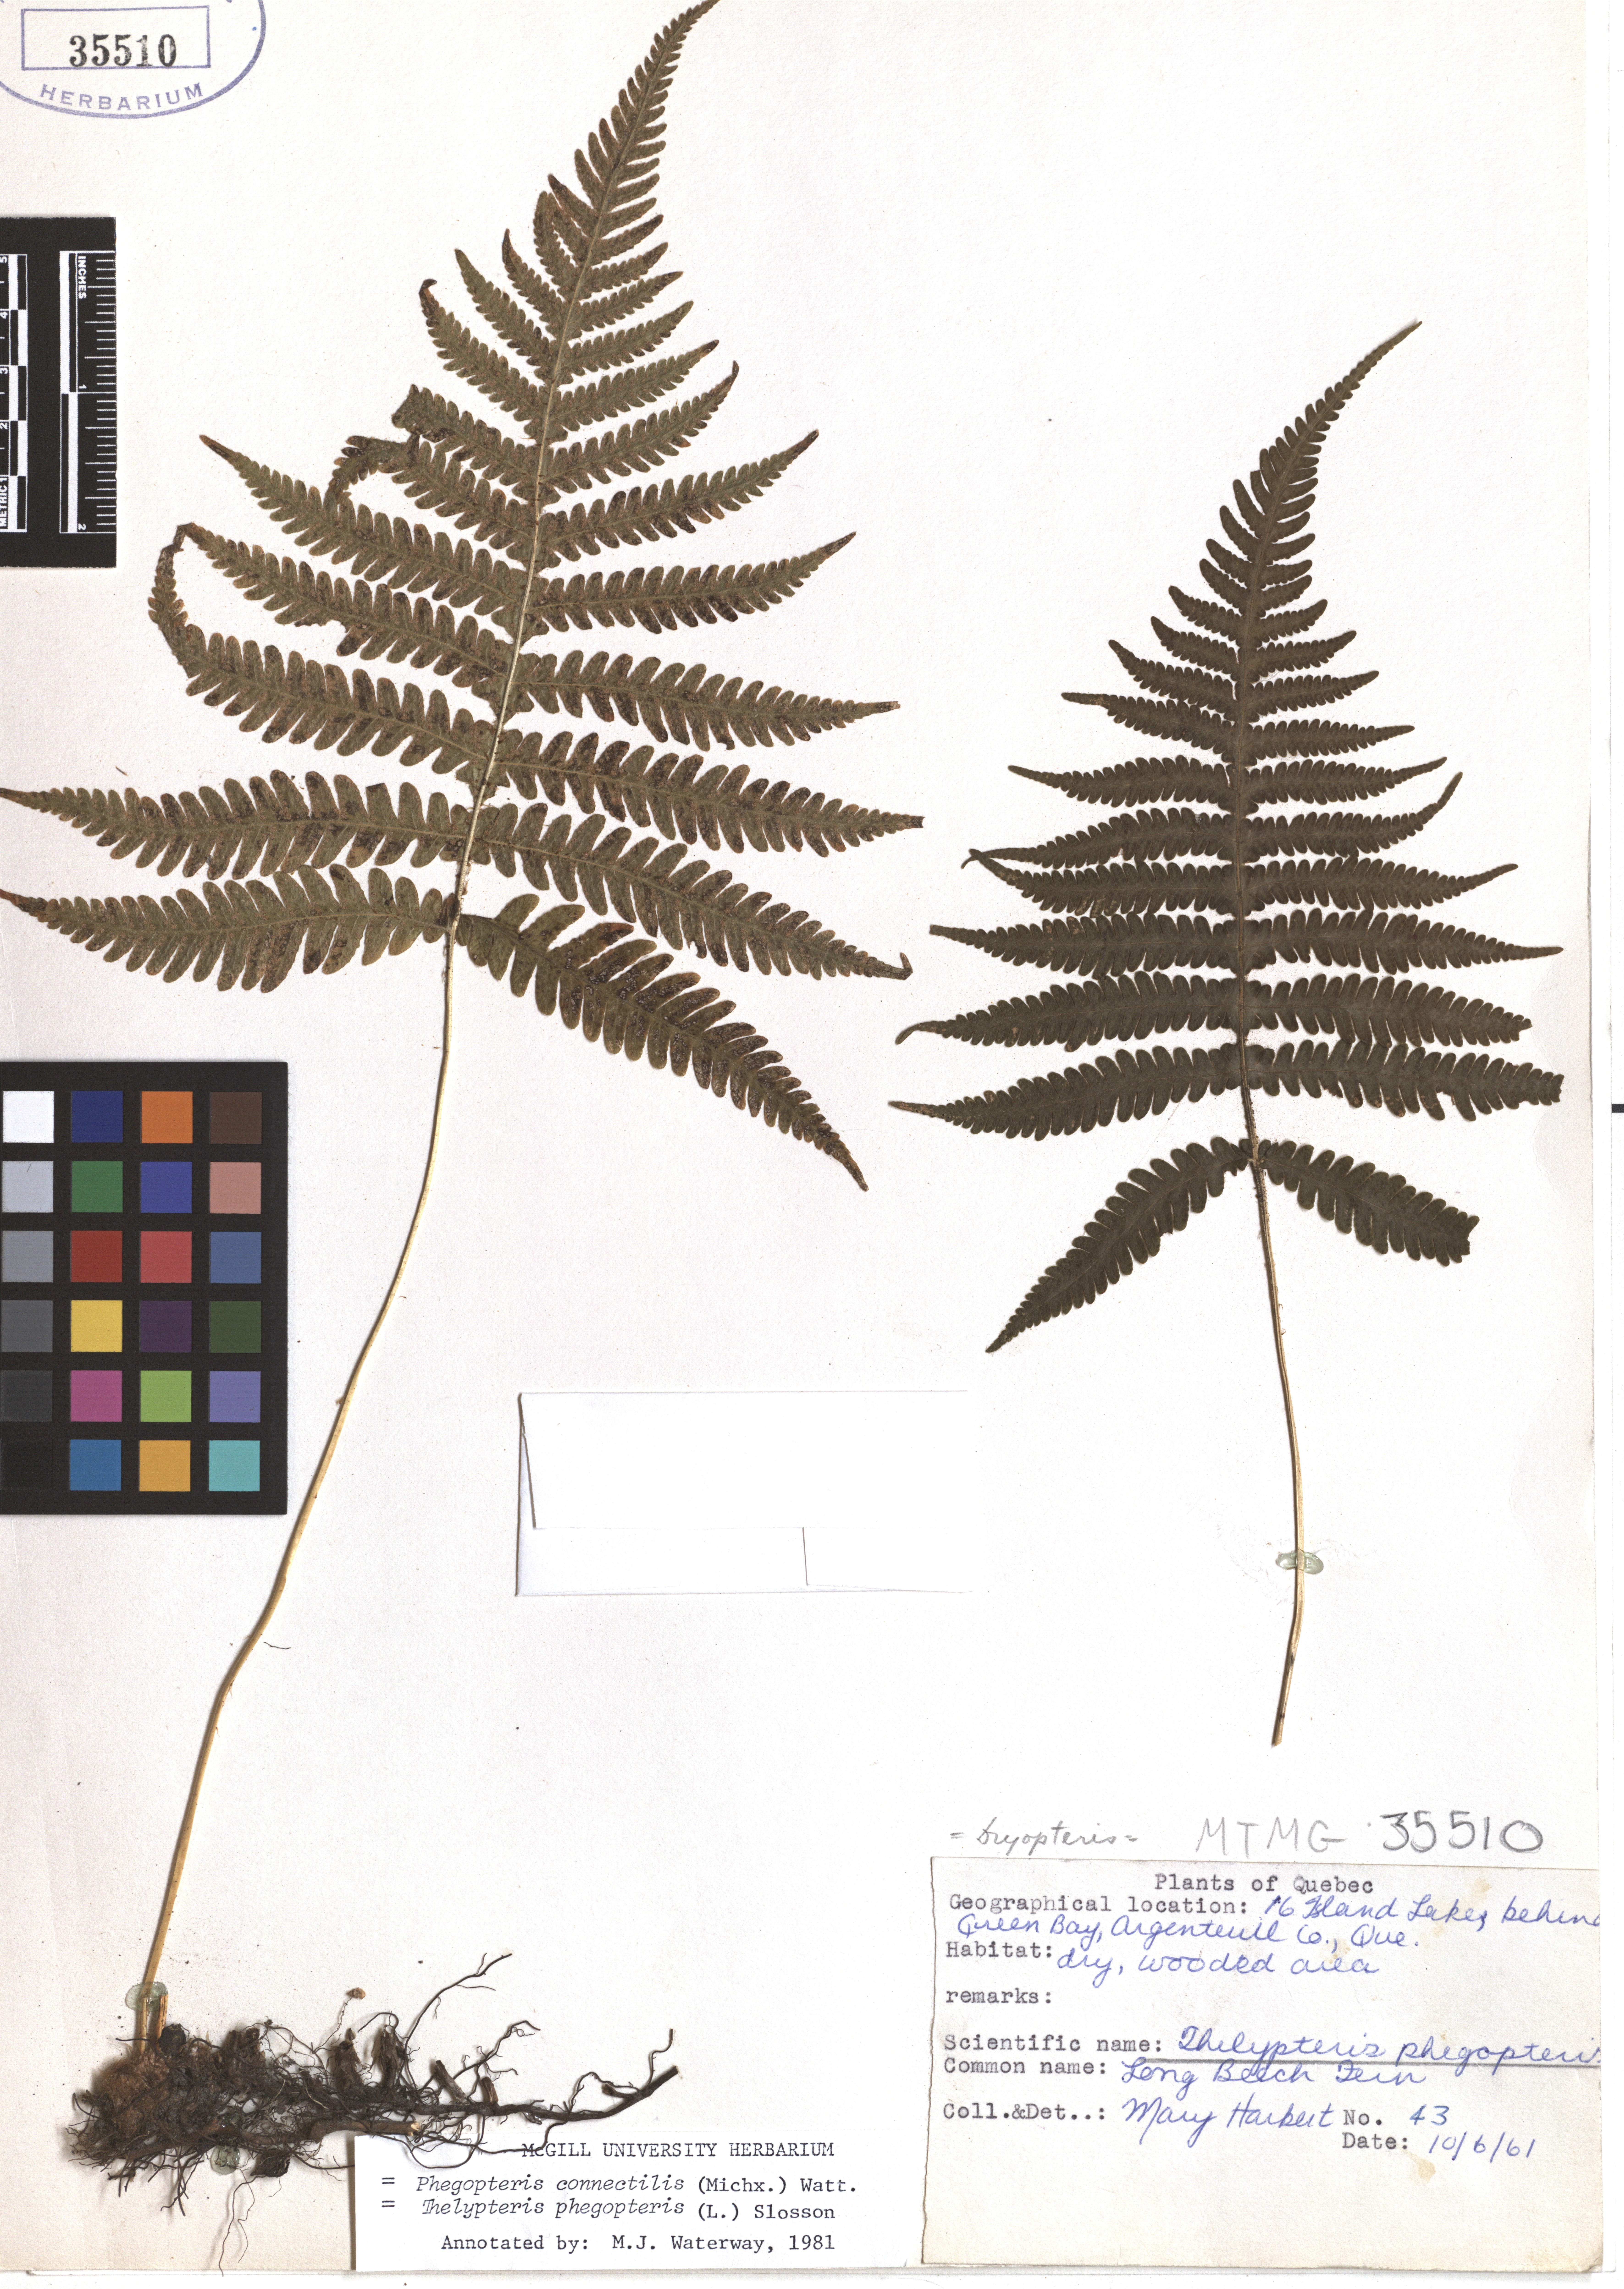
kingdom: Plantae
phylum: Tracheophyta
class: Polypodiopsida
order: Polypodiales
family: Thelypteridaceae
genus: Phegopteris
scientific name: Phegopteris connectilis
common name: Beech fern
